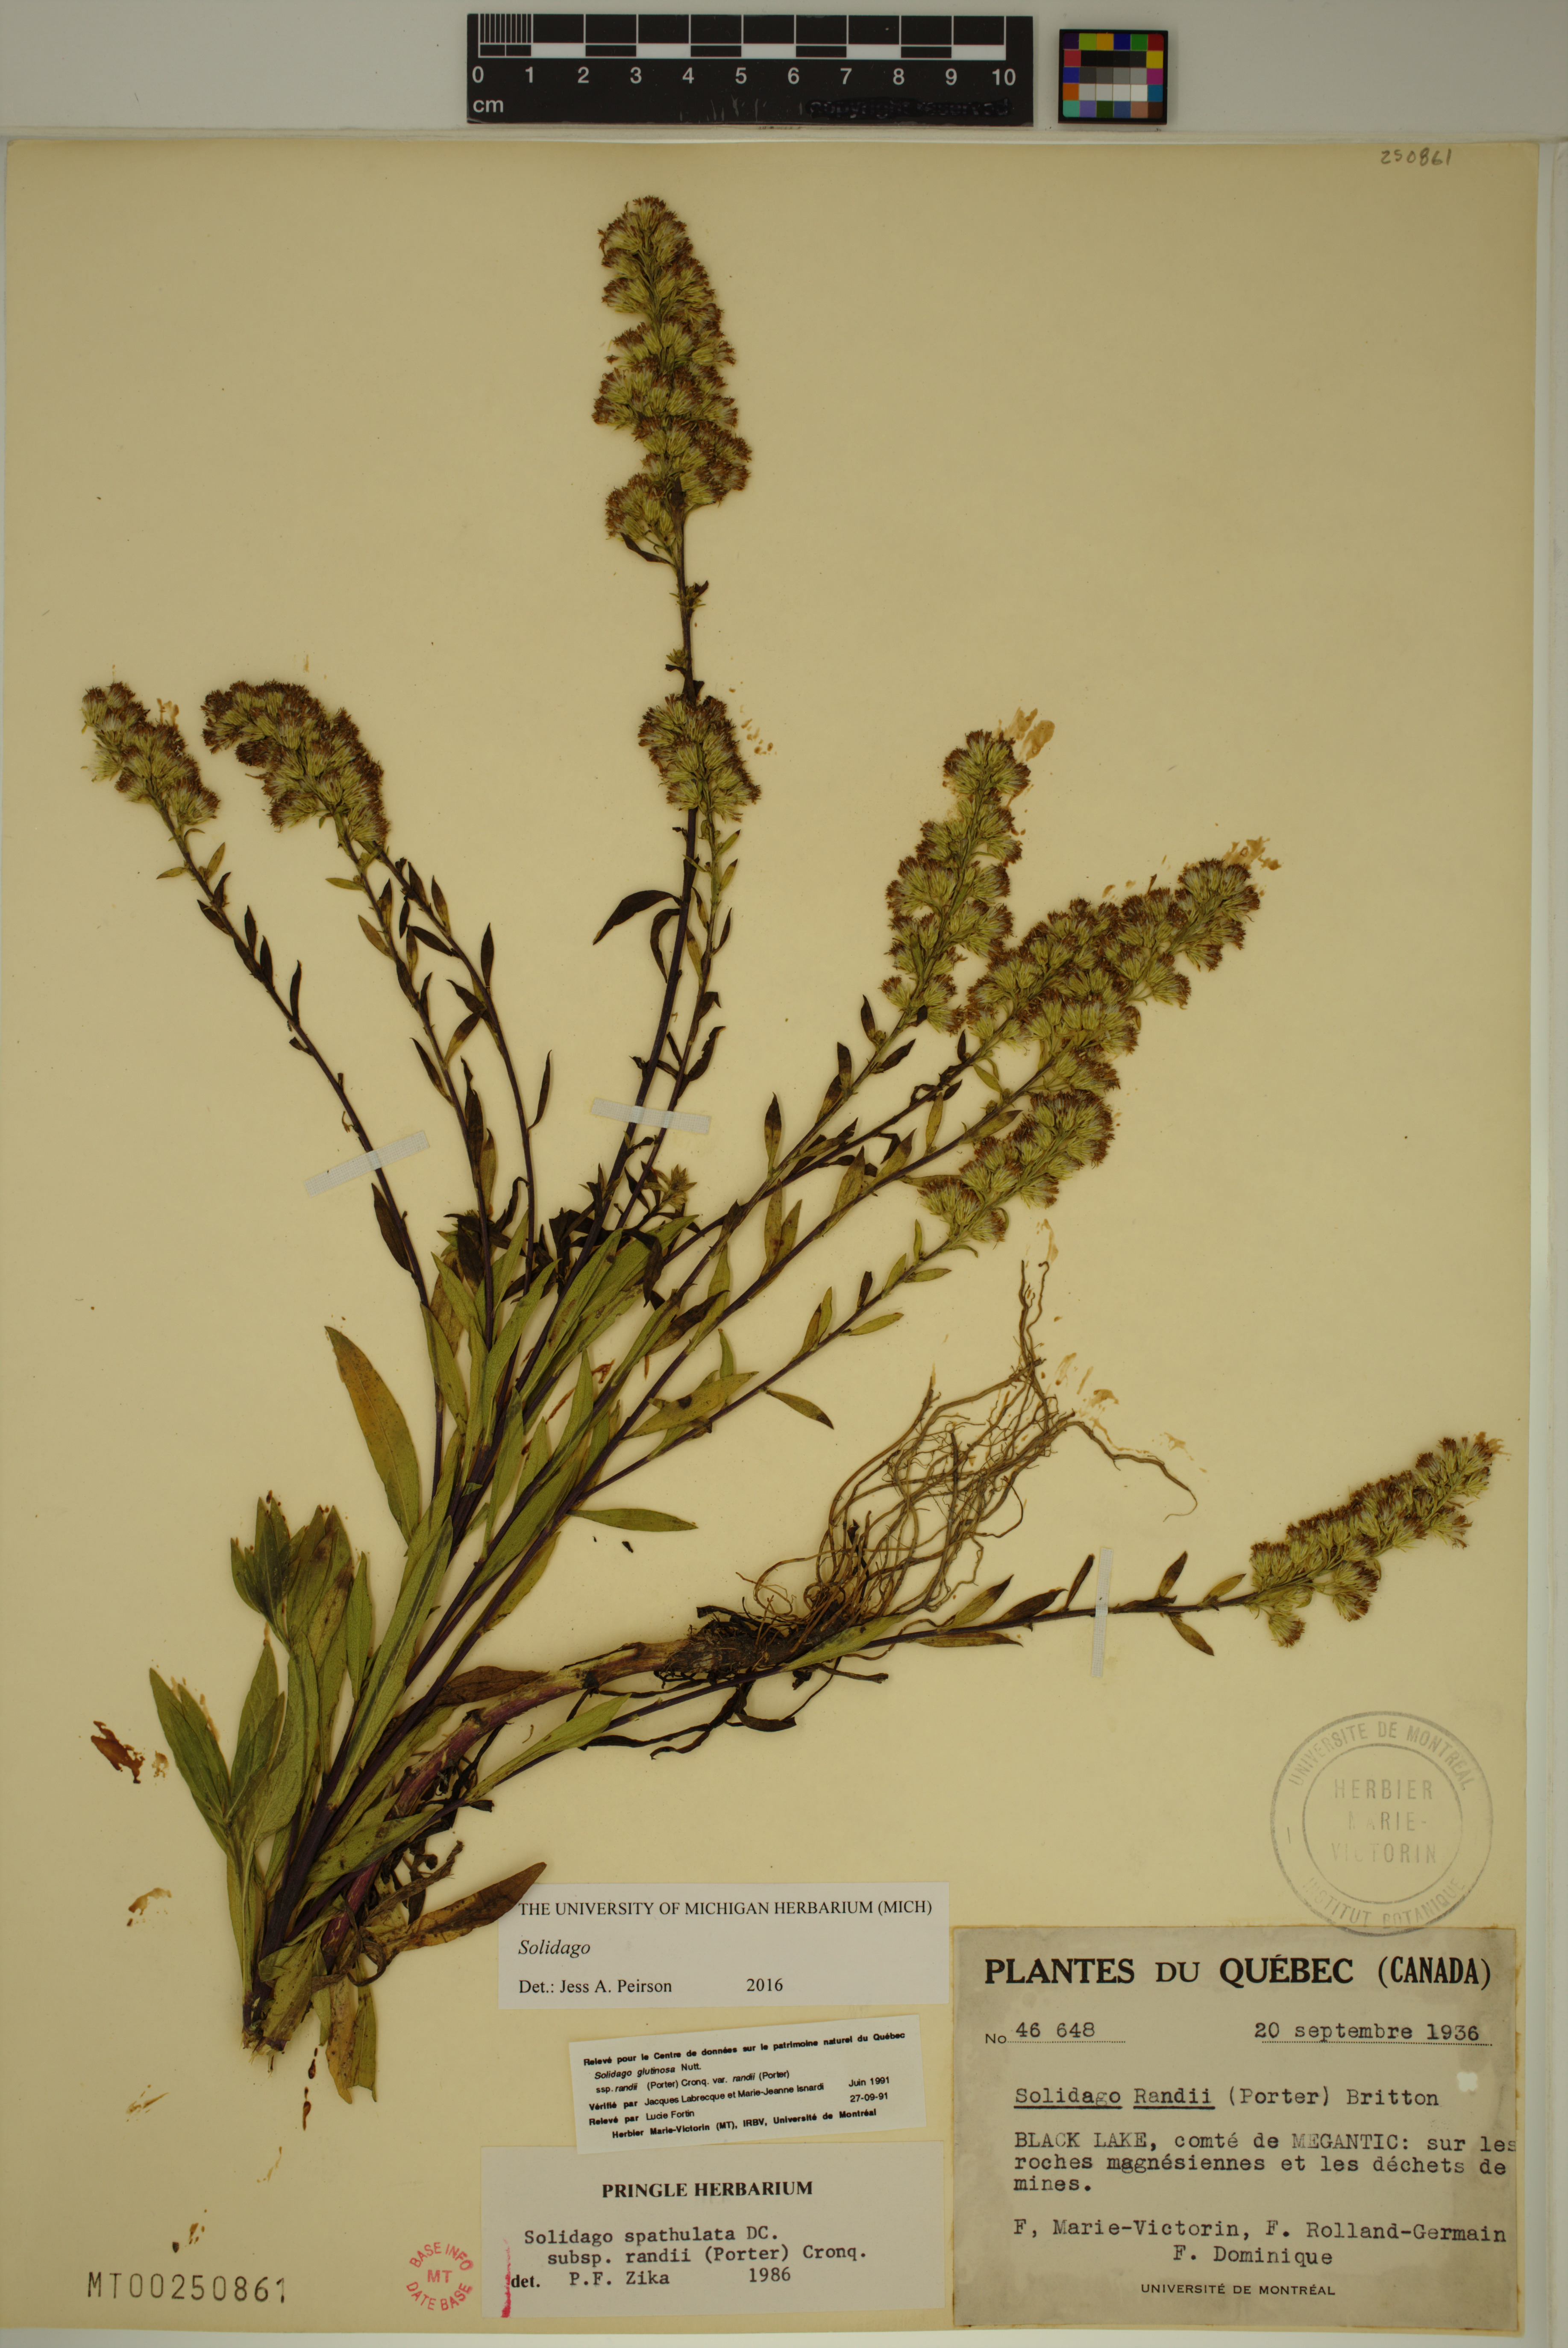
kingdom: Plantae
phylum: Tracheophyta
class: Magnoliopsida
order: Asterales
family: Asteraceae
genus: Solidago
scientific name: Solidago
